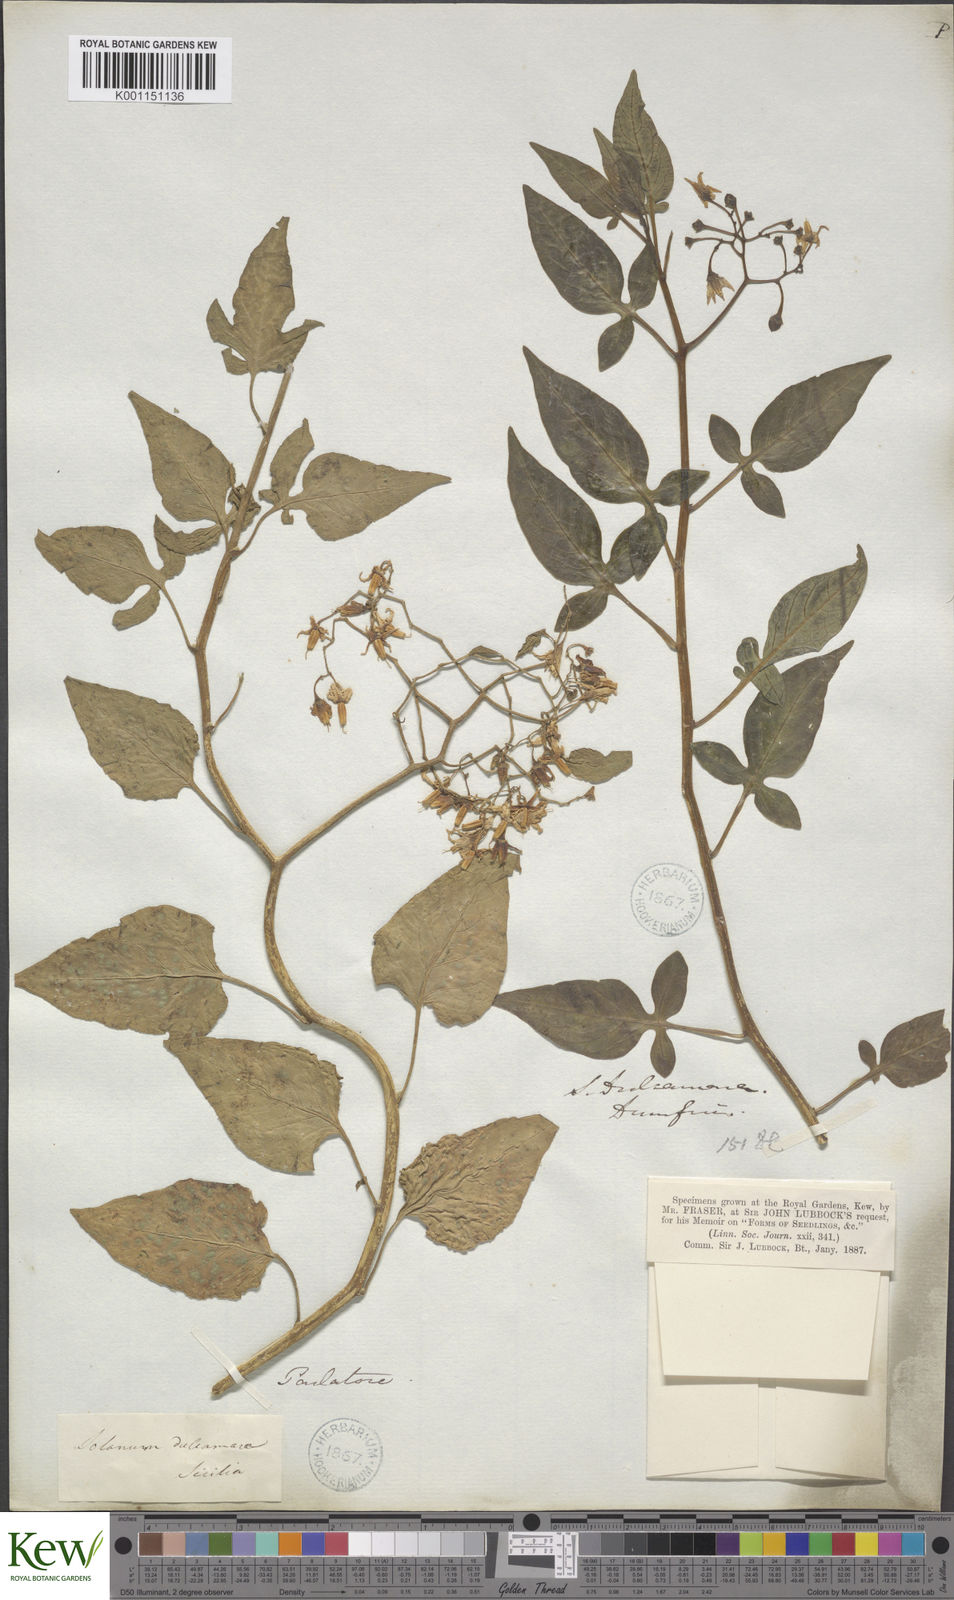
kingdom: Plantae
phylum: Tracheophyta
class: Magnoliopsida
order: Solanales
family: Solanaceae
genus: Solanum
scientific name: Solanum dulcamara
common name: Climbing nightshade
